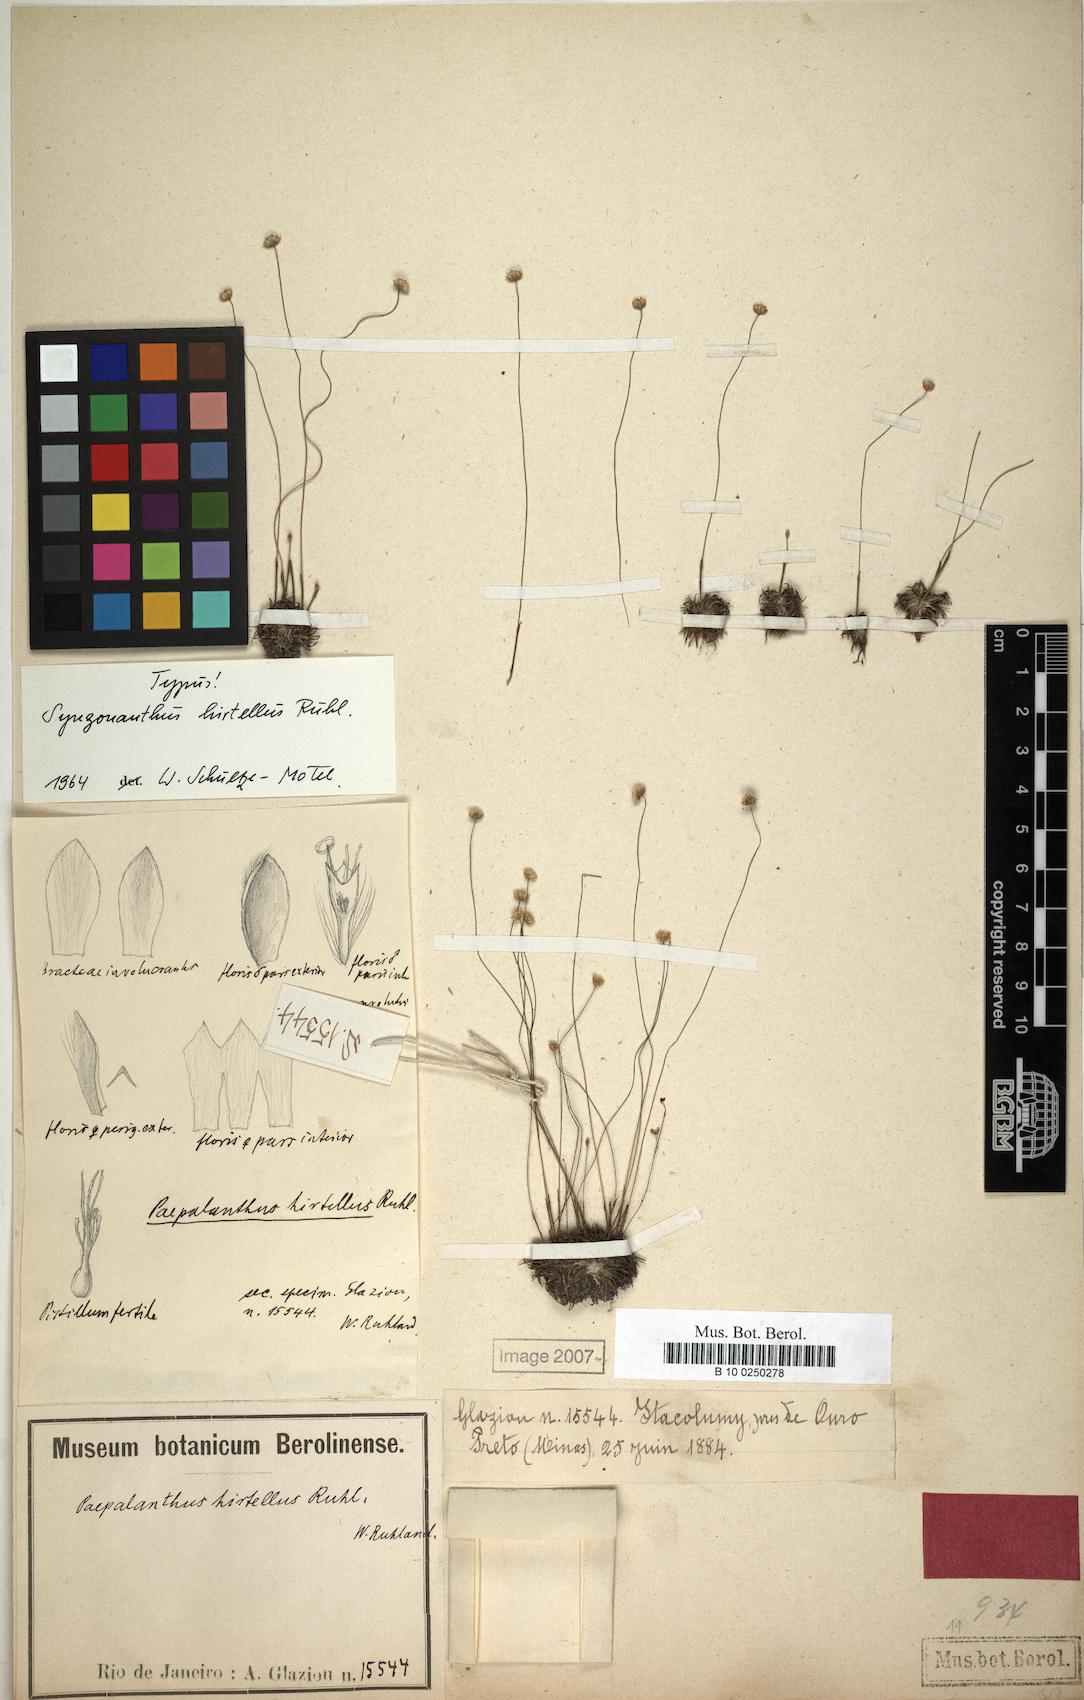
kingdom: Plantae
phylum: Tracheophyta
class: Liliopsida
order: Poales
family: Eriocaulaceae
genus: Syngonanthus
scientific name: Syngonanthus gracilis
